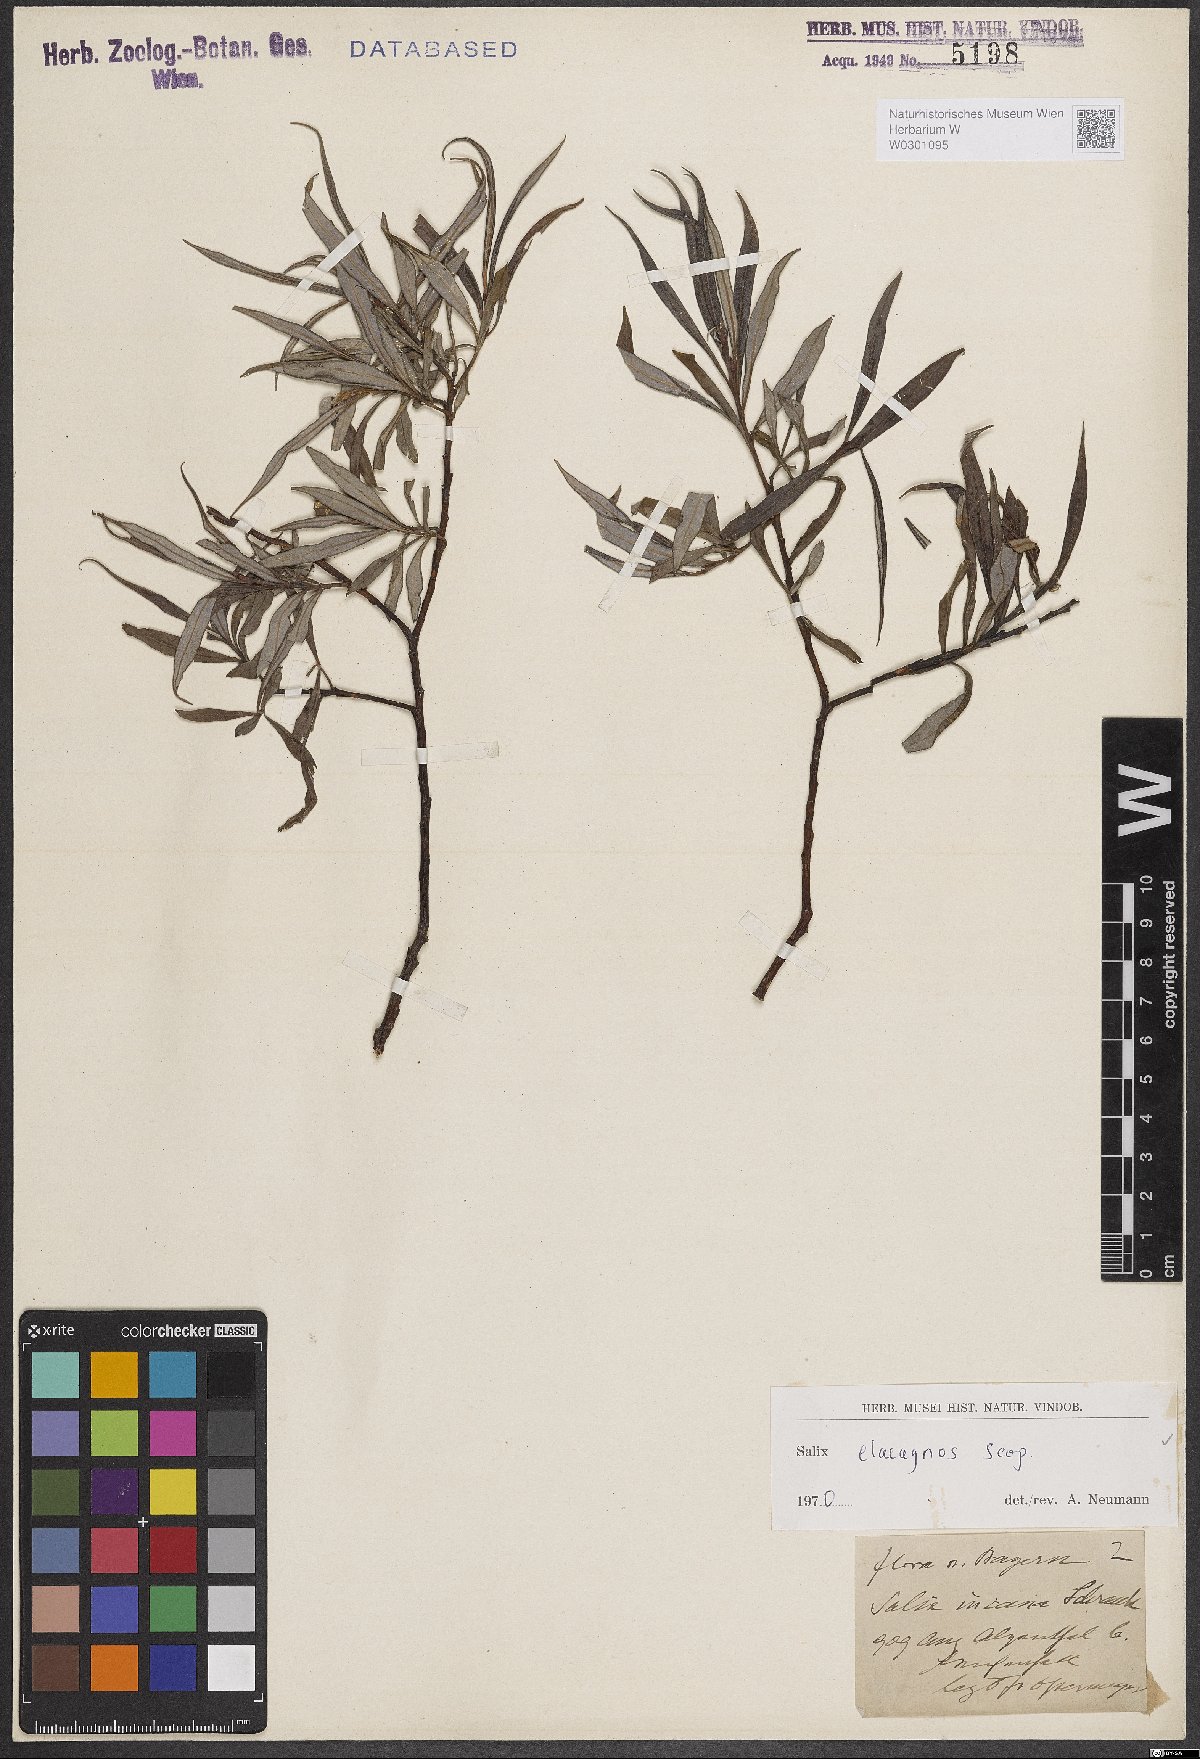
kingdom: Plantae
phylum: Tracheophyta
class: Magnoliopsida
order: Malpighiales
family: Salicaceae
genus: Salix
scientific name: Salix eleagnos
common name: Elaeagnus willow
